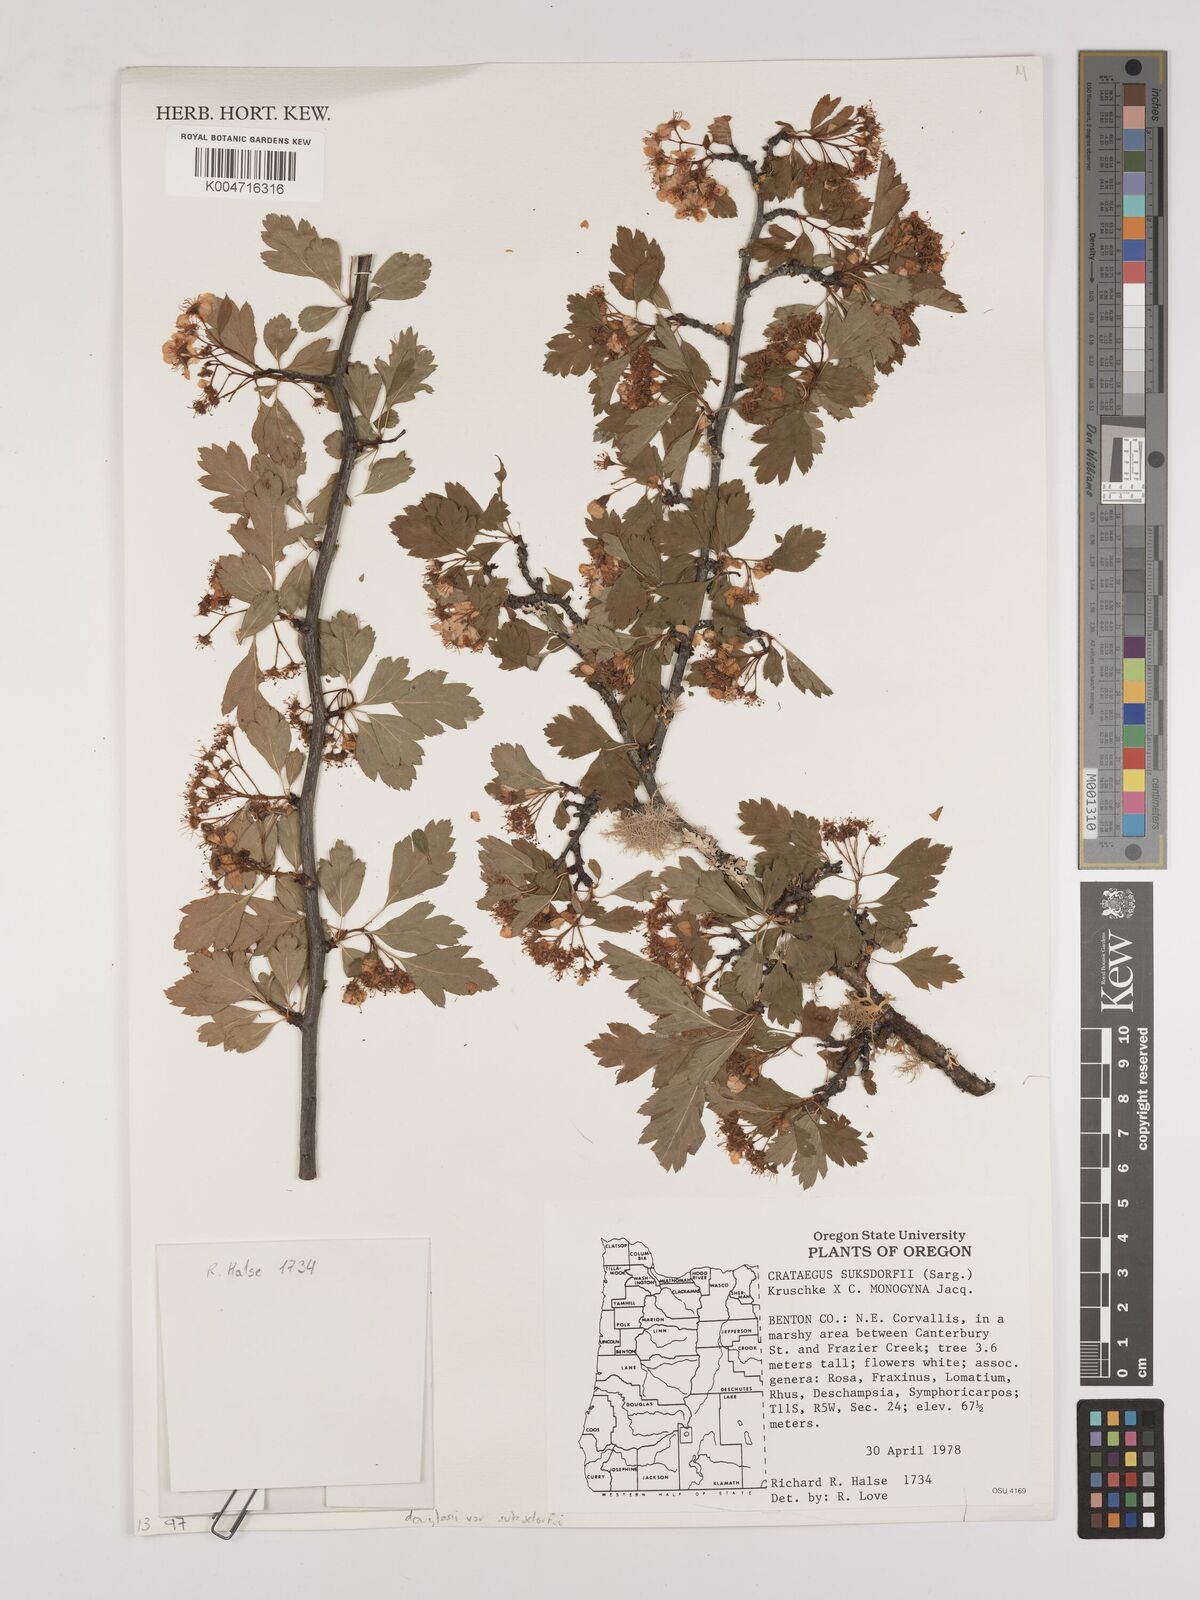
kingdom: Plantae
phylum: Tracheophyta
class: Magnoliopsida
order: Rosales
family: Rosaceae
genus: Crataegus
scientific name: Crataegus gaylussacia
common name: Huckleberry hawthorn
